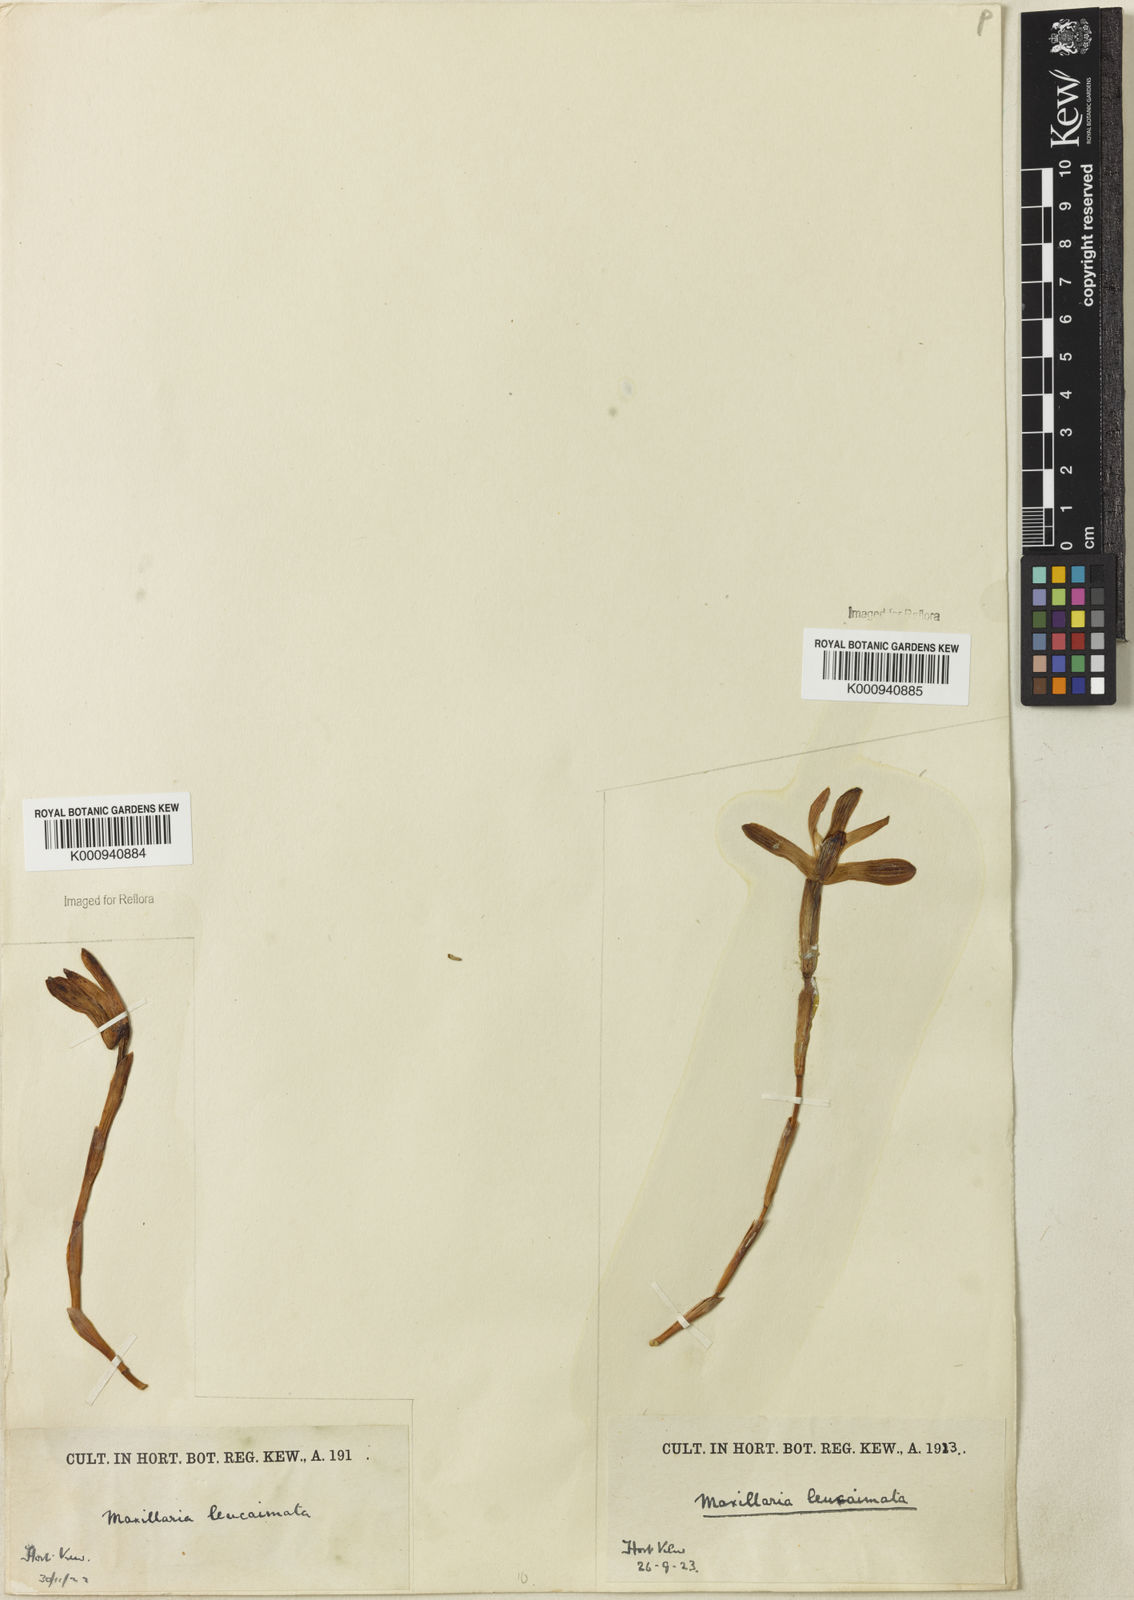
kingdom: Plantae
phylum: Tracheophyta
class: Liliopsida
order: Asparagales
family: Orchidaceae
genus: Maxillaria
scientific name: Maxillaria leucaimata
